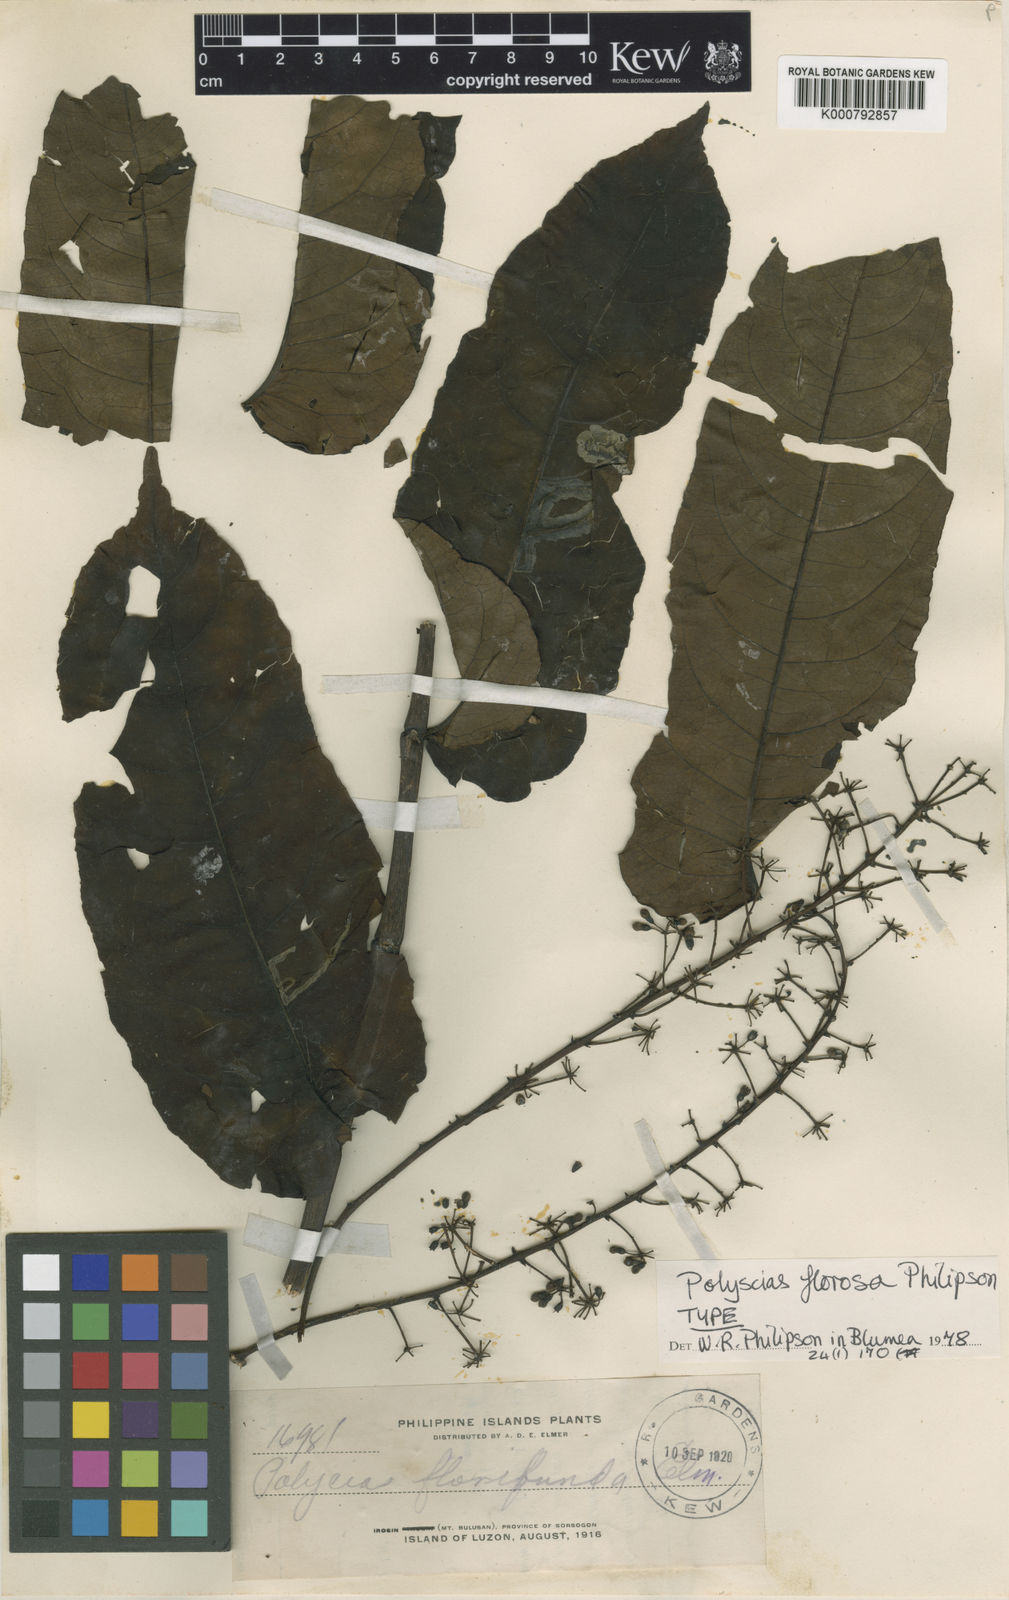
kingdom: Plantae
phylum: Tracheophyta
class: Magnoliopsida
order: Apiales
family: Araliaceae
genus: Polyscias
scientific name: Polyscias florosa
